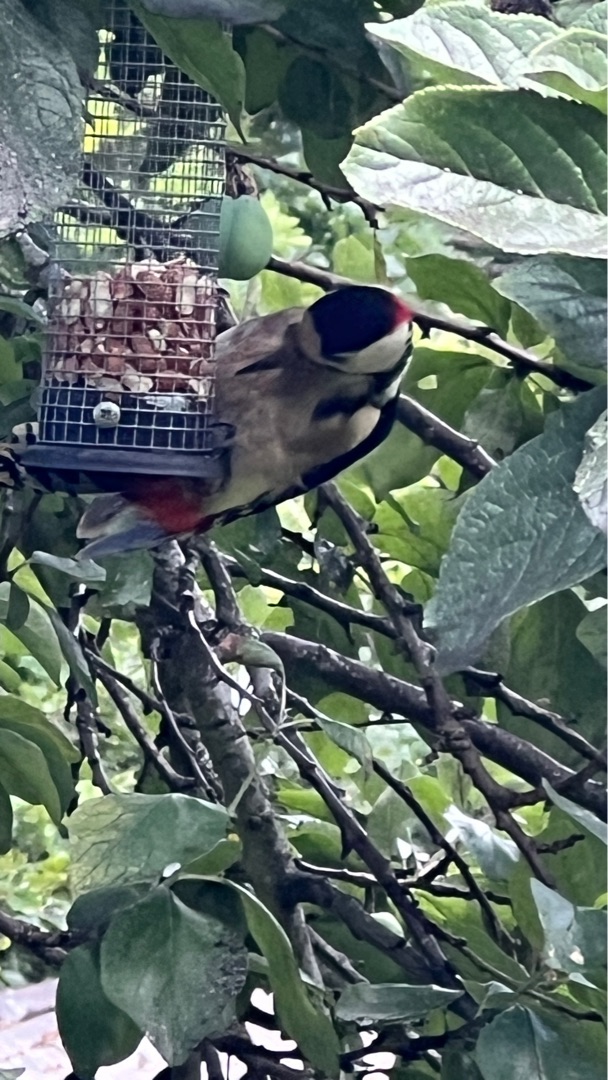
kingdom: Animalia
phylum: Chordata
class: Aves
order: Piciformes
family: Picidae
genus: Dendrocopos
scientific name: Dendrocopos major
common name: Stor flagspætte
